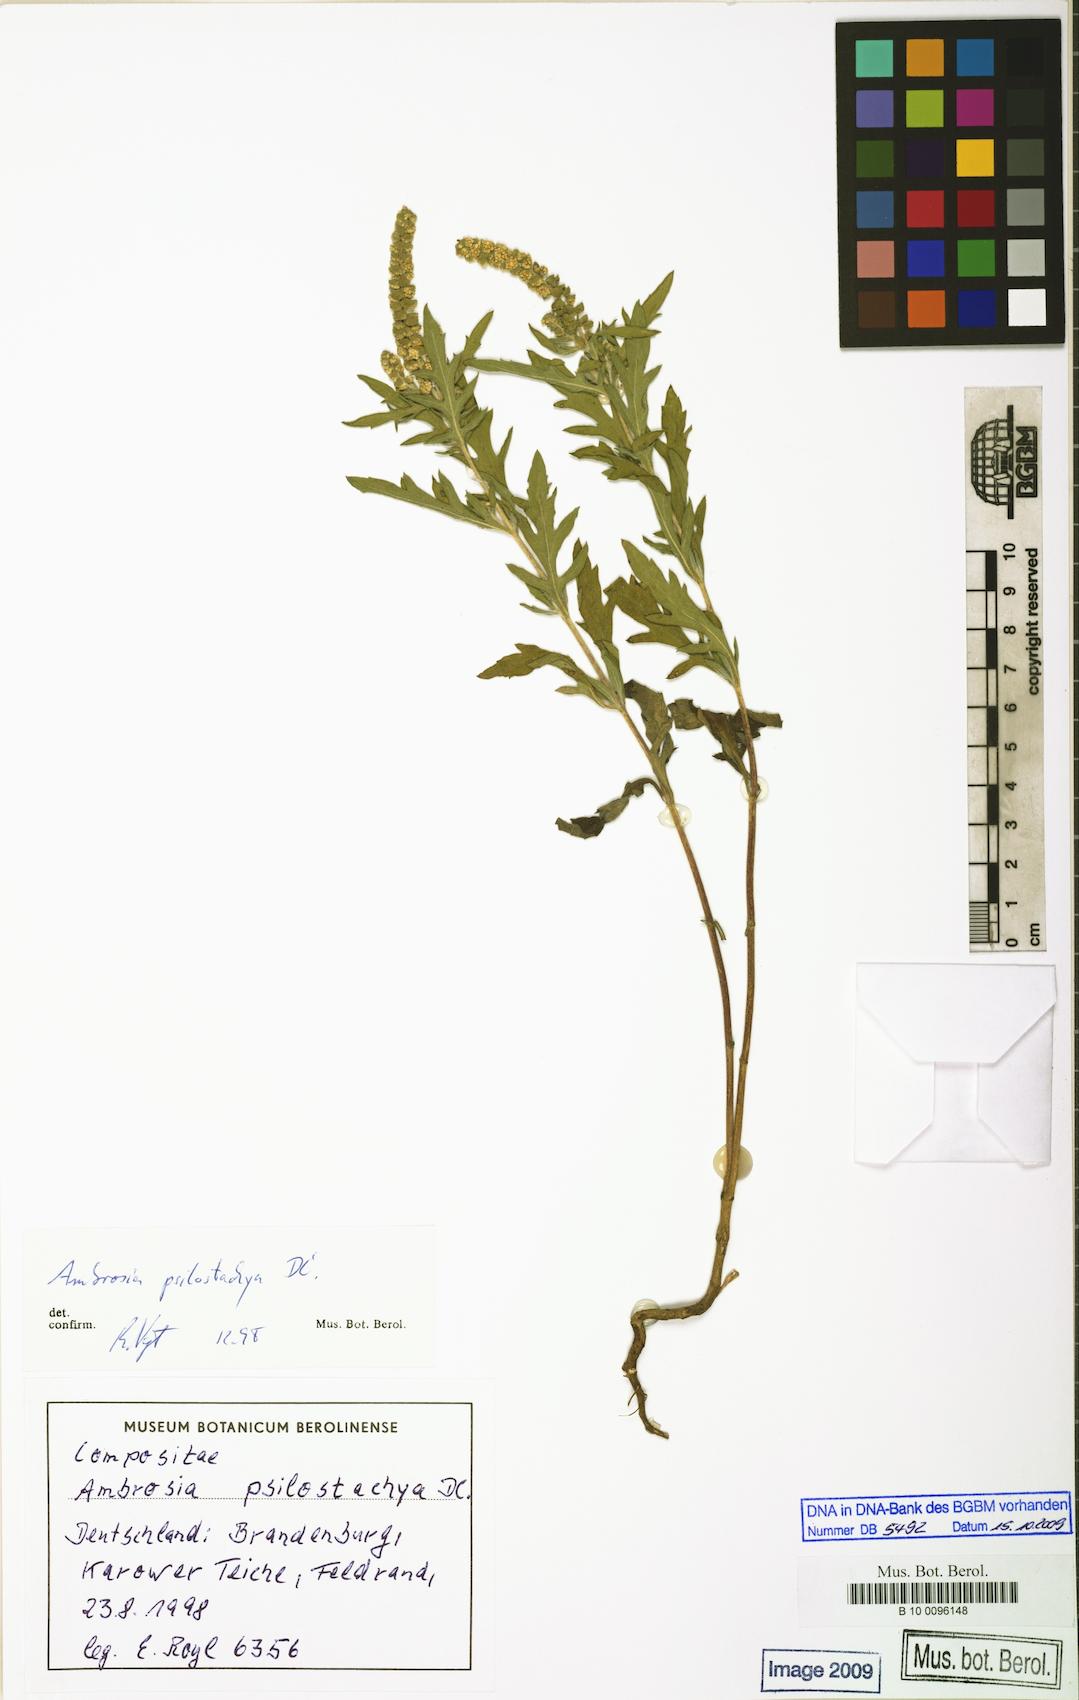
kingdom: Plantae
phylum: Tracheophyta
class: Magnoliopsida
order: Asterales
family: Asteraceae
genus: Ambrosia
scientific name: Ambrosia psilostachya
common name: Perennial ragweed
